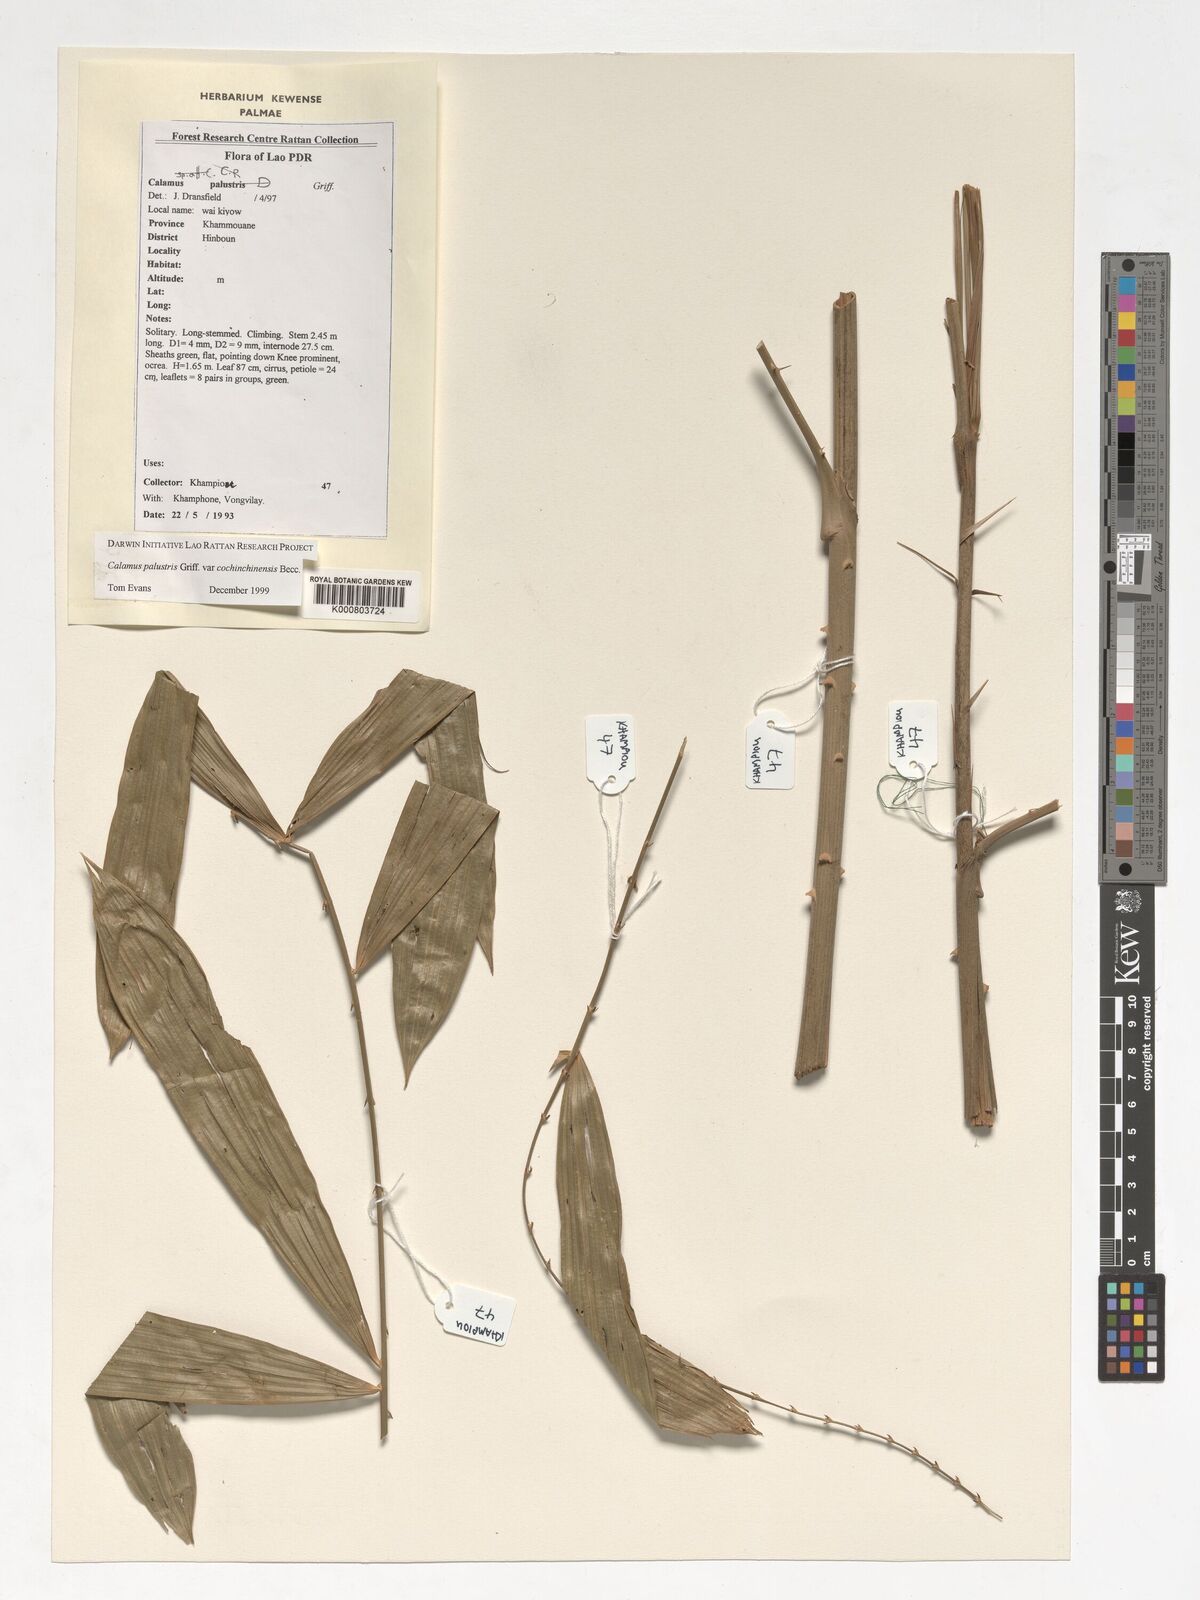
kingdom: Plantae
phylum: Tracheophyta
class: Liliopsida
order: Arecales
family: Arecaceae
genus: Calamus
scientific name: Calamus latifolius
